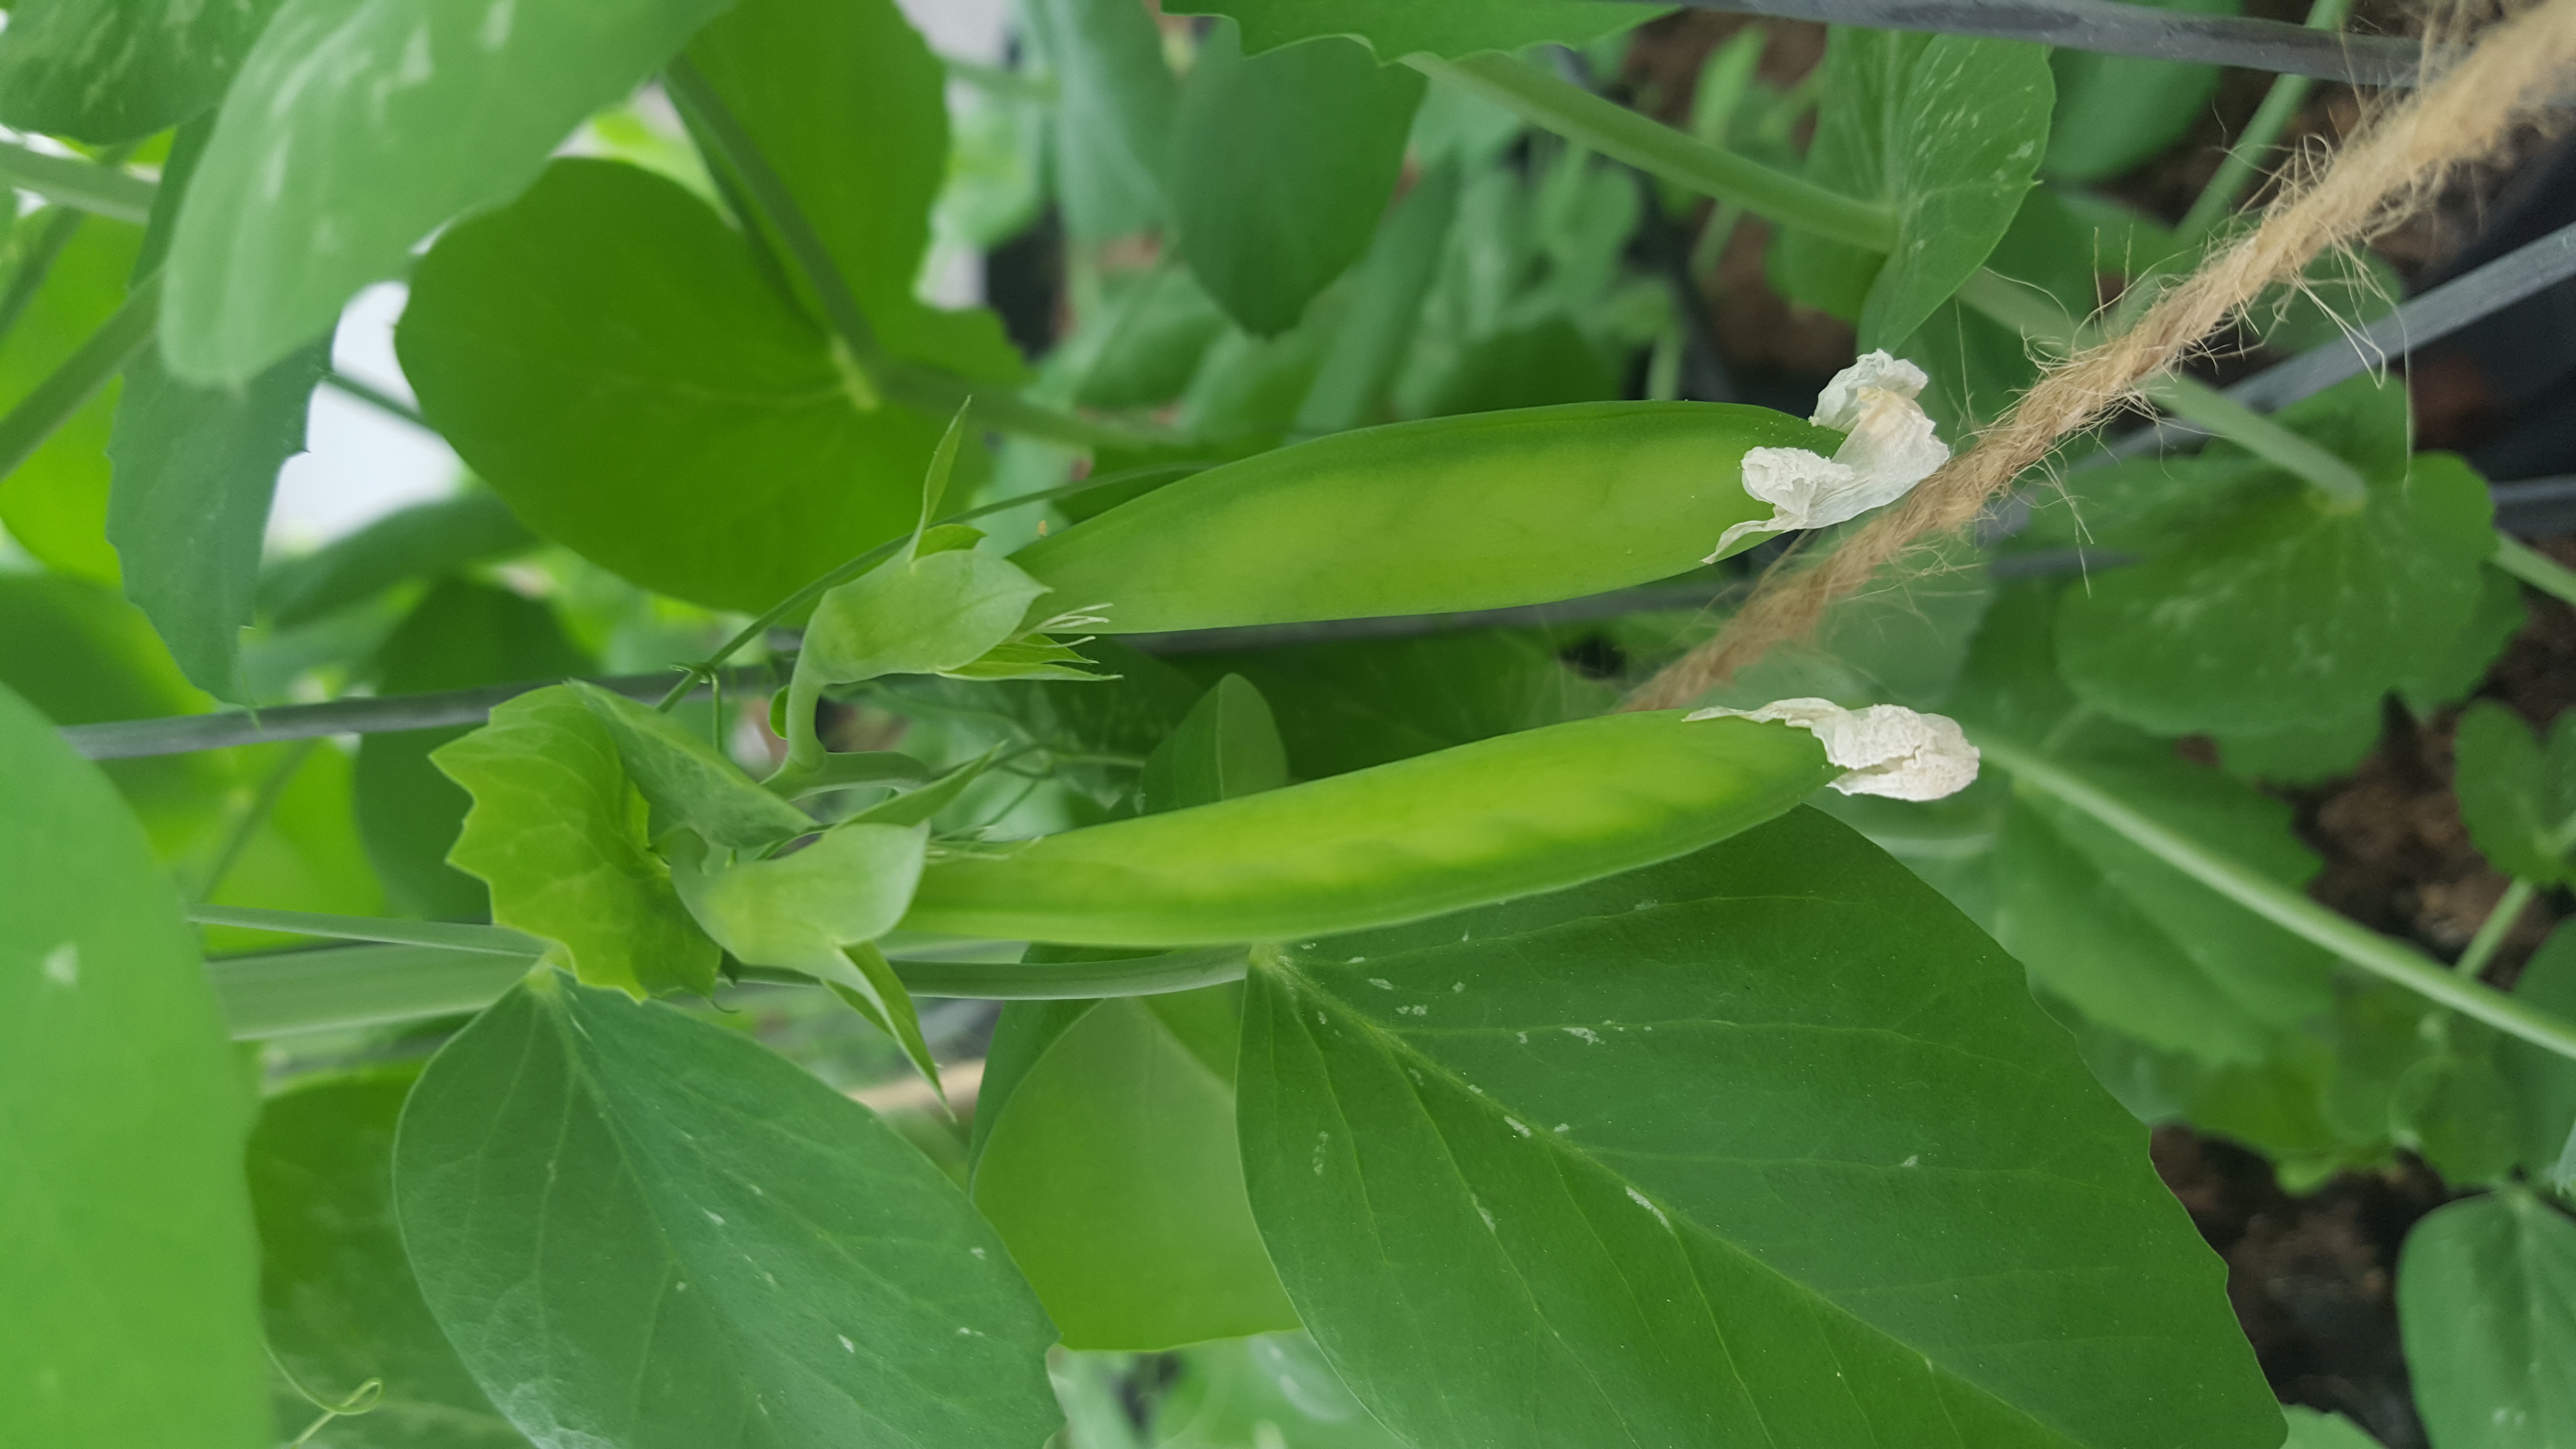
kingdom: Plantae
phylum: Tracheophyta
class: Magnoliopsida
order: Fabales
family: Fabaceae
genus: Lathyrus
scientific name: Lathyrus oleraceus
